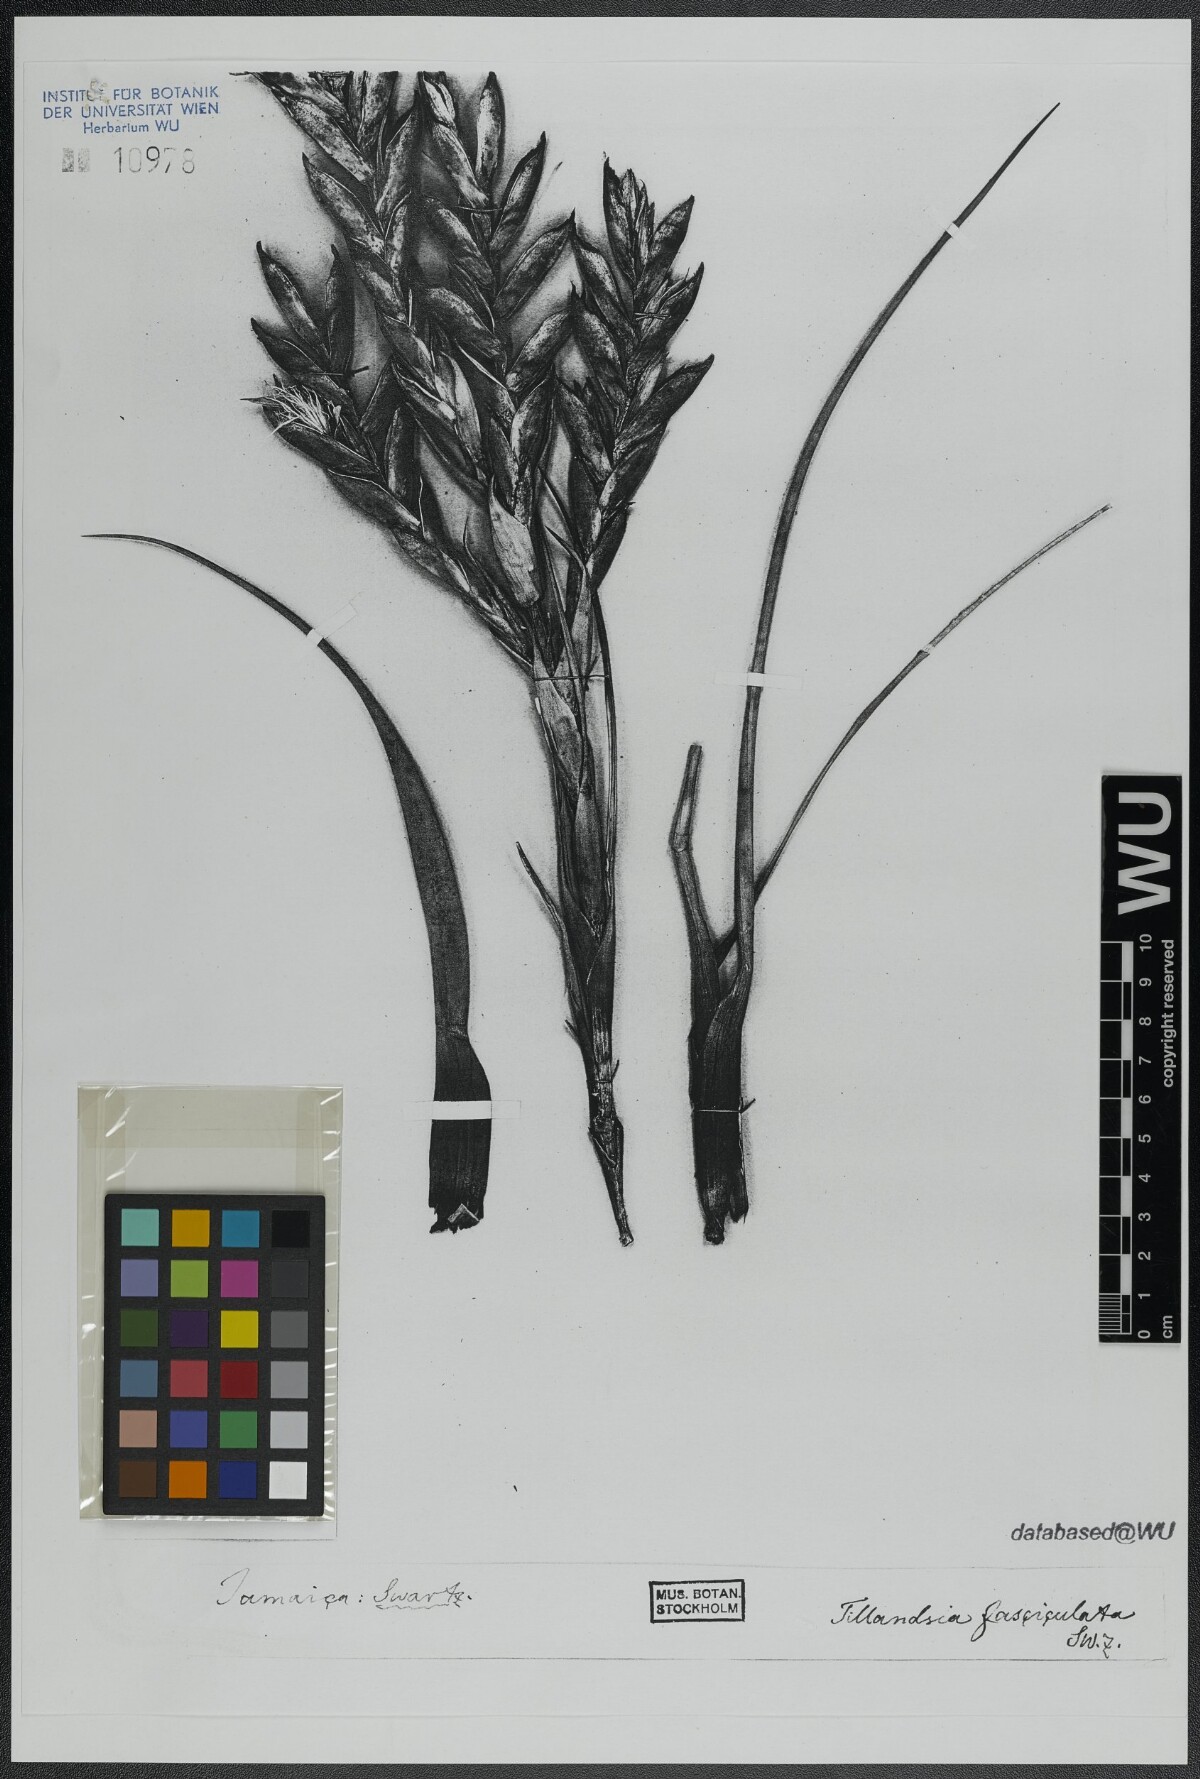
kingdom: Plantae
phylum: Tracheophyta
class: Liliopsida
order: Poales
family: Bromeliaceae
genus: Tillandsia
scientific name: Tillandsia fasciculata
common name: Giant airplant
